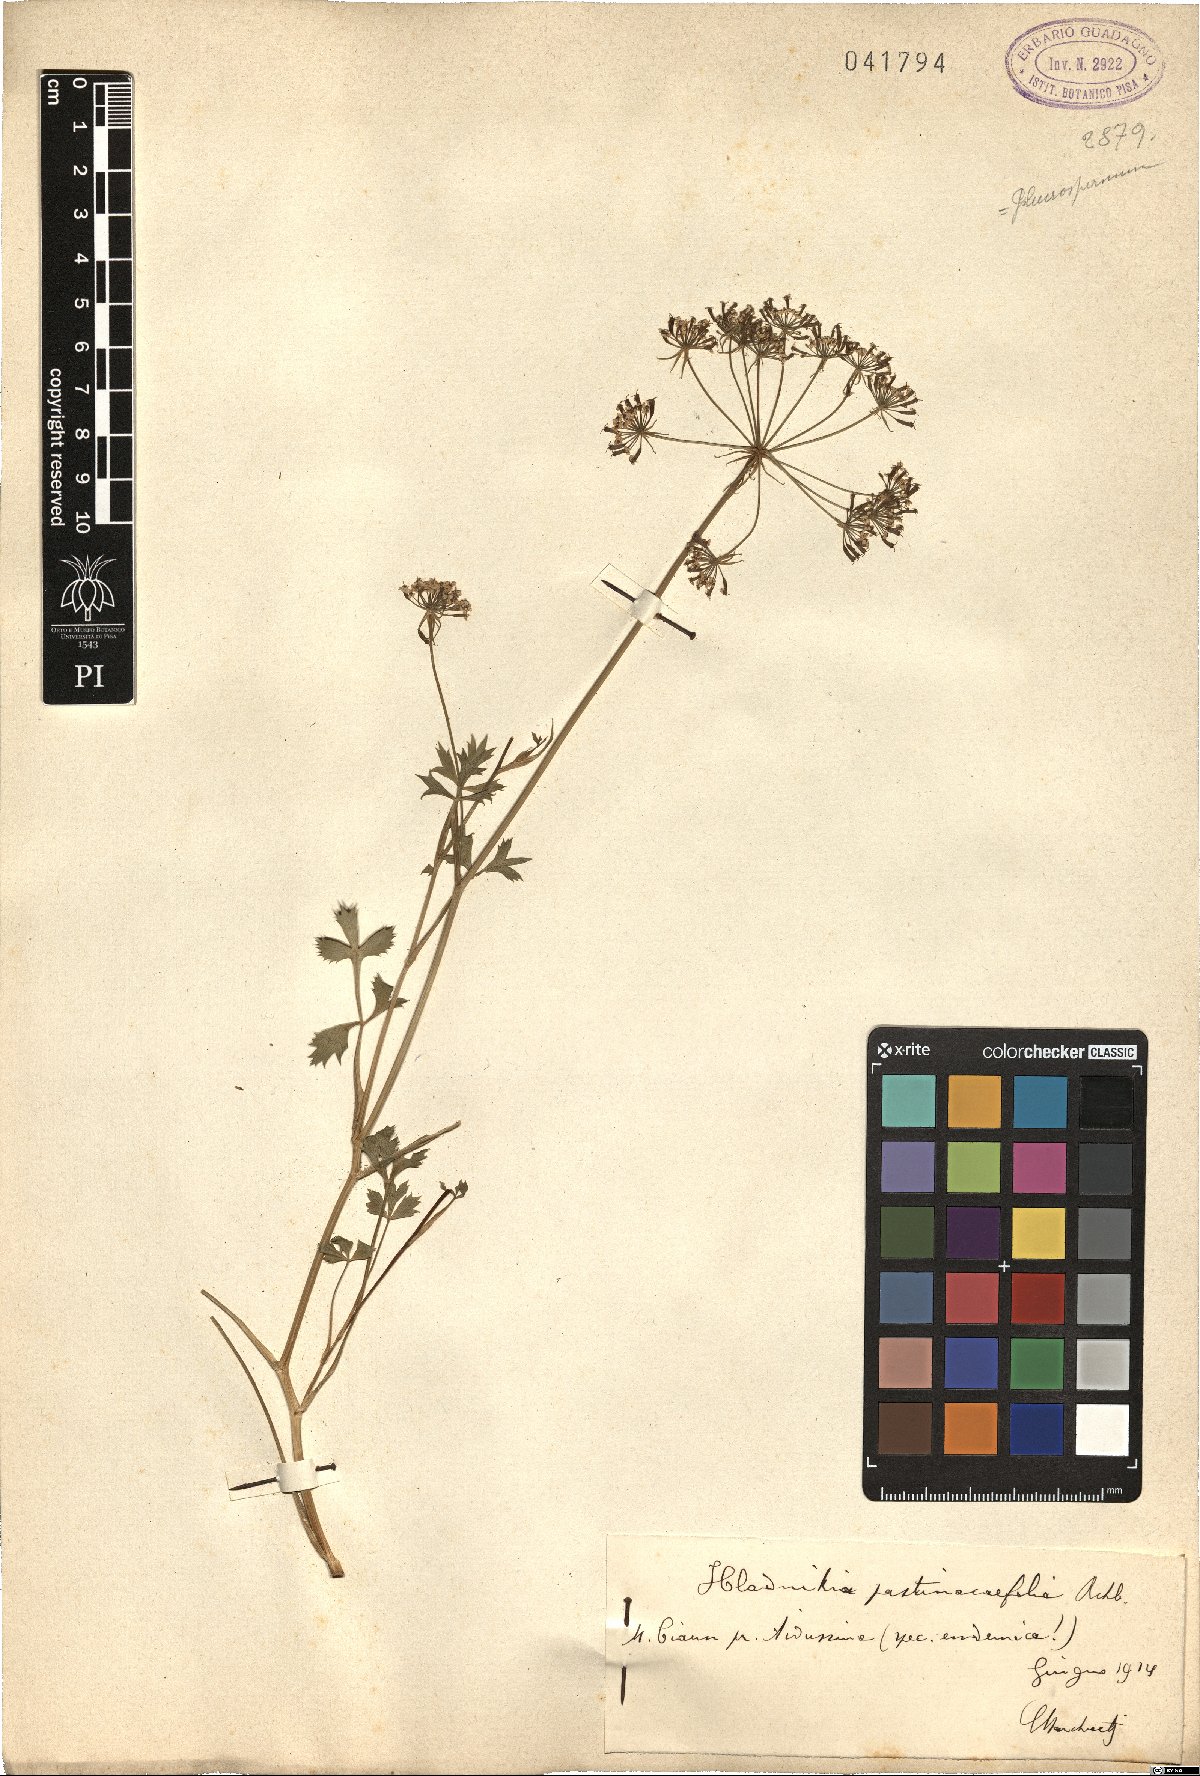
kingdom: Plantae
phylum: Tracheophyta
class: Magnoliopsida
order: Apiales
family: Apiaceae
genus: Hladnikia
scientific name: Hladnikia pastinacifolia
